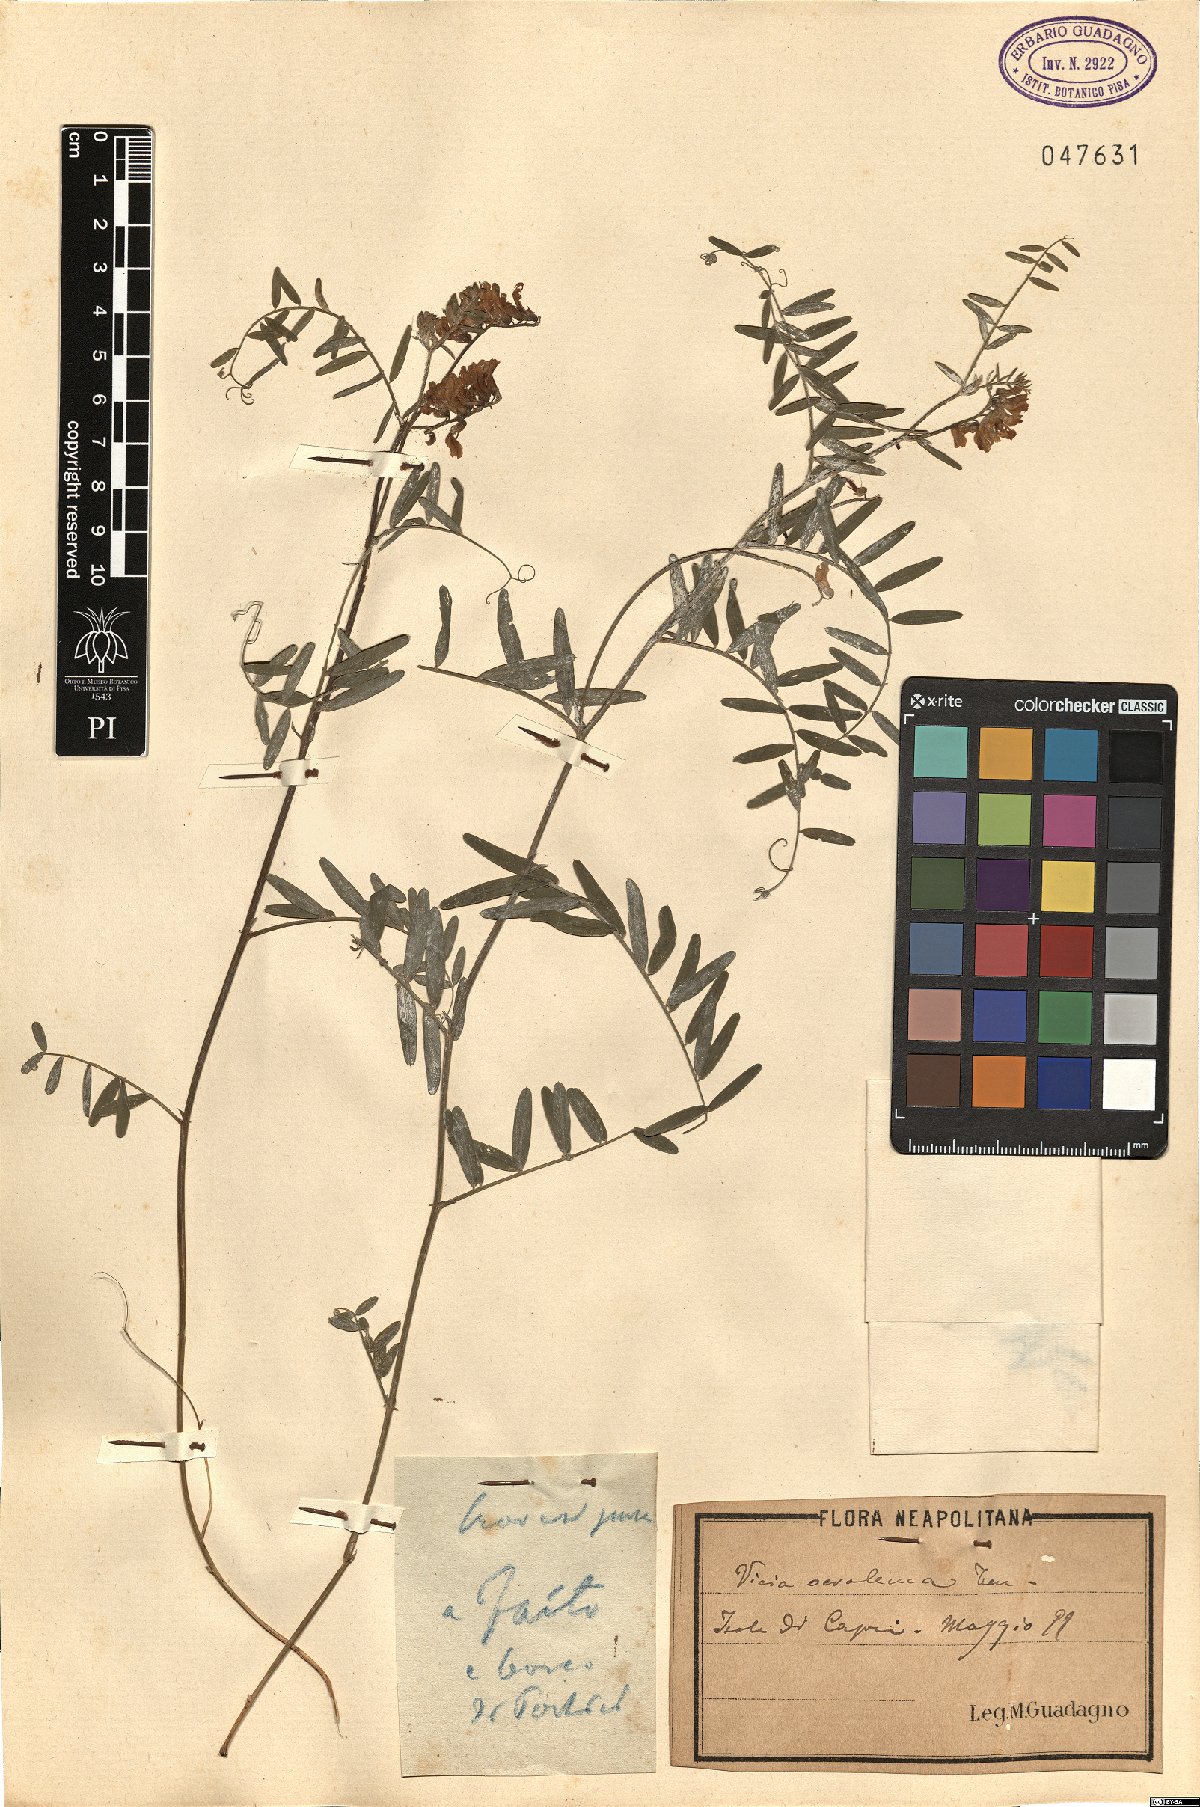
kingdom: Plantae
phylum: Tracheophyta
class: Magnoliopsida
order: Fabales
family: Fabaceae
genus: Vicia
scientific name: Vicia ochroleuca
